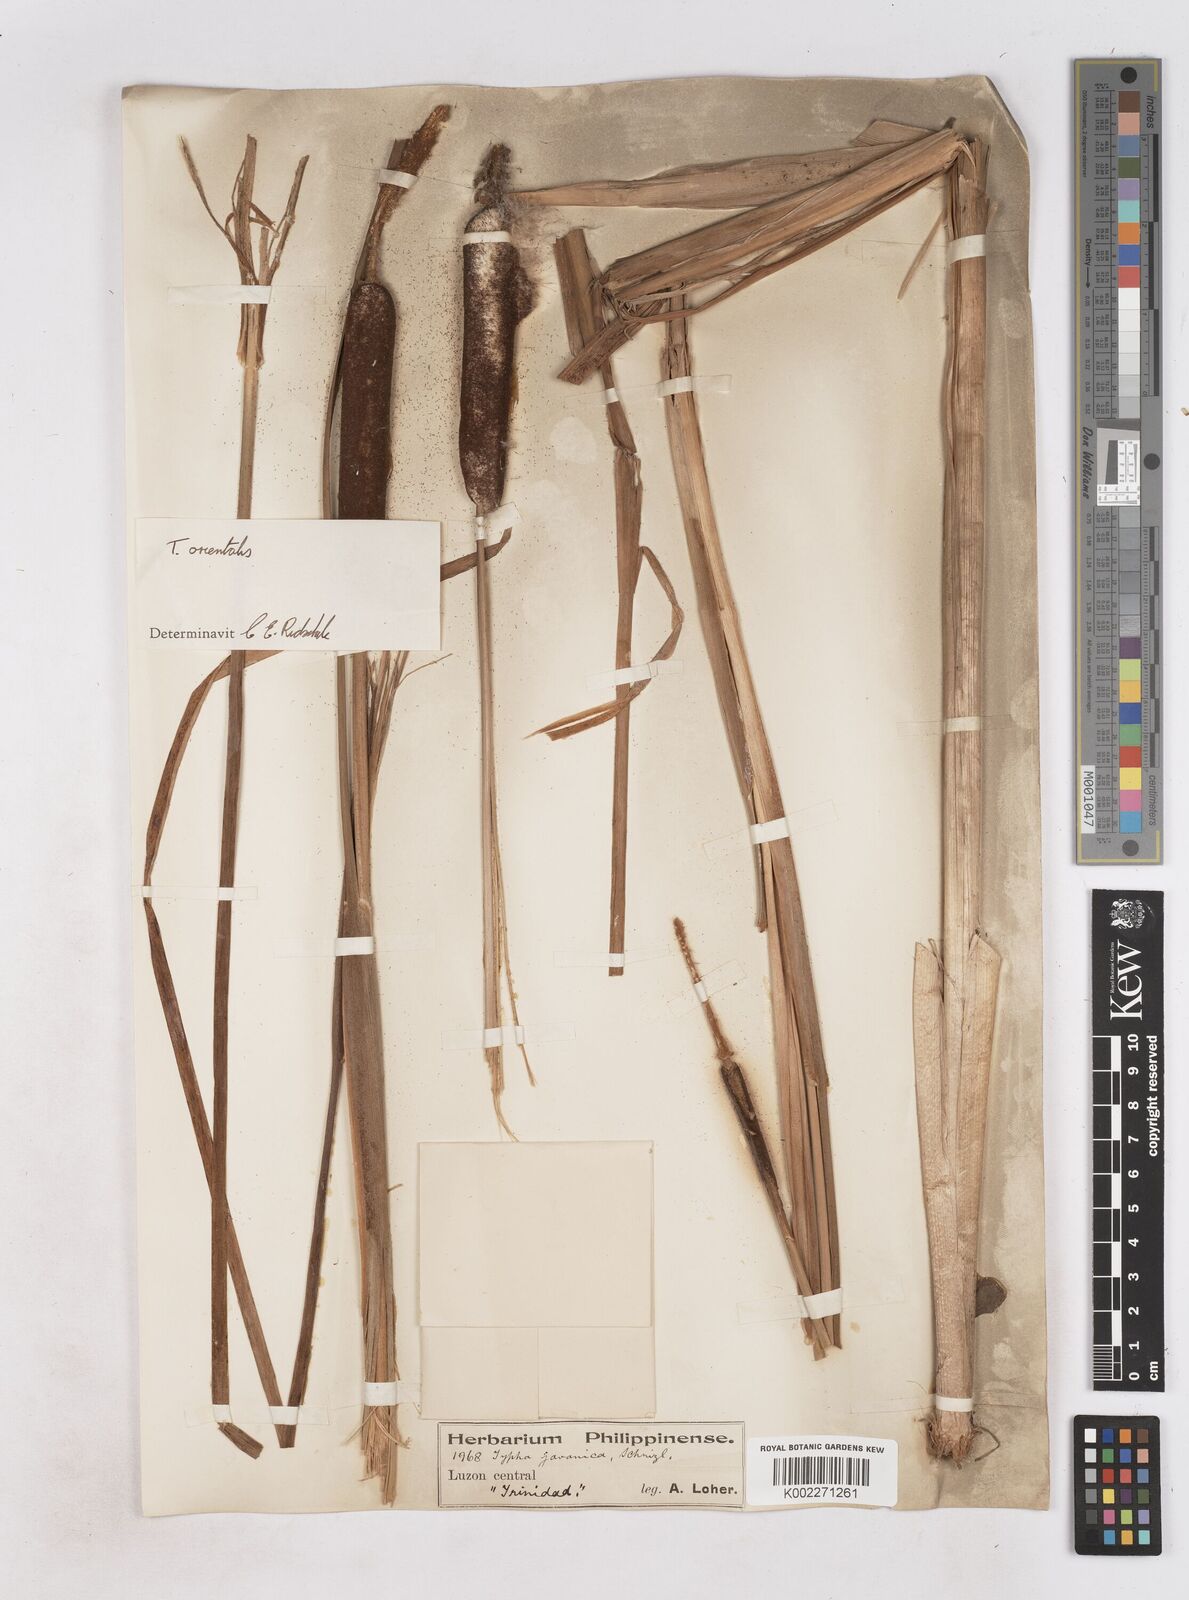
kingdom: Plantae
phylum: Tracheophyta
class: Liliopsida
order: Poales
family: Typhaceae
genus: Typha
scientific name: Typha orientalis
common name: Bullrush
